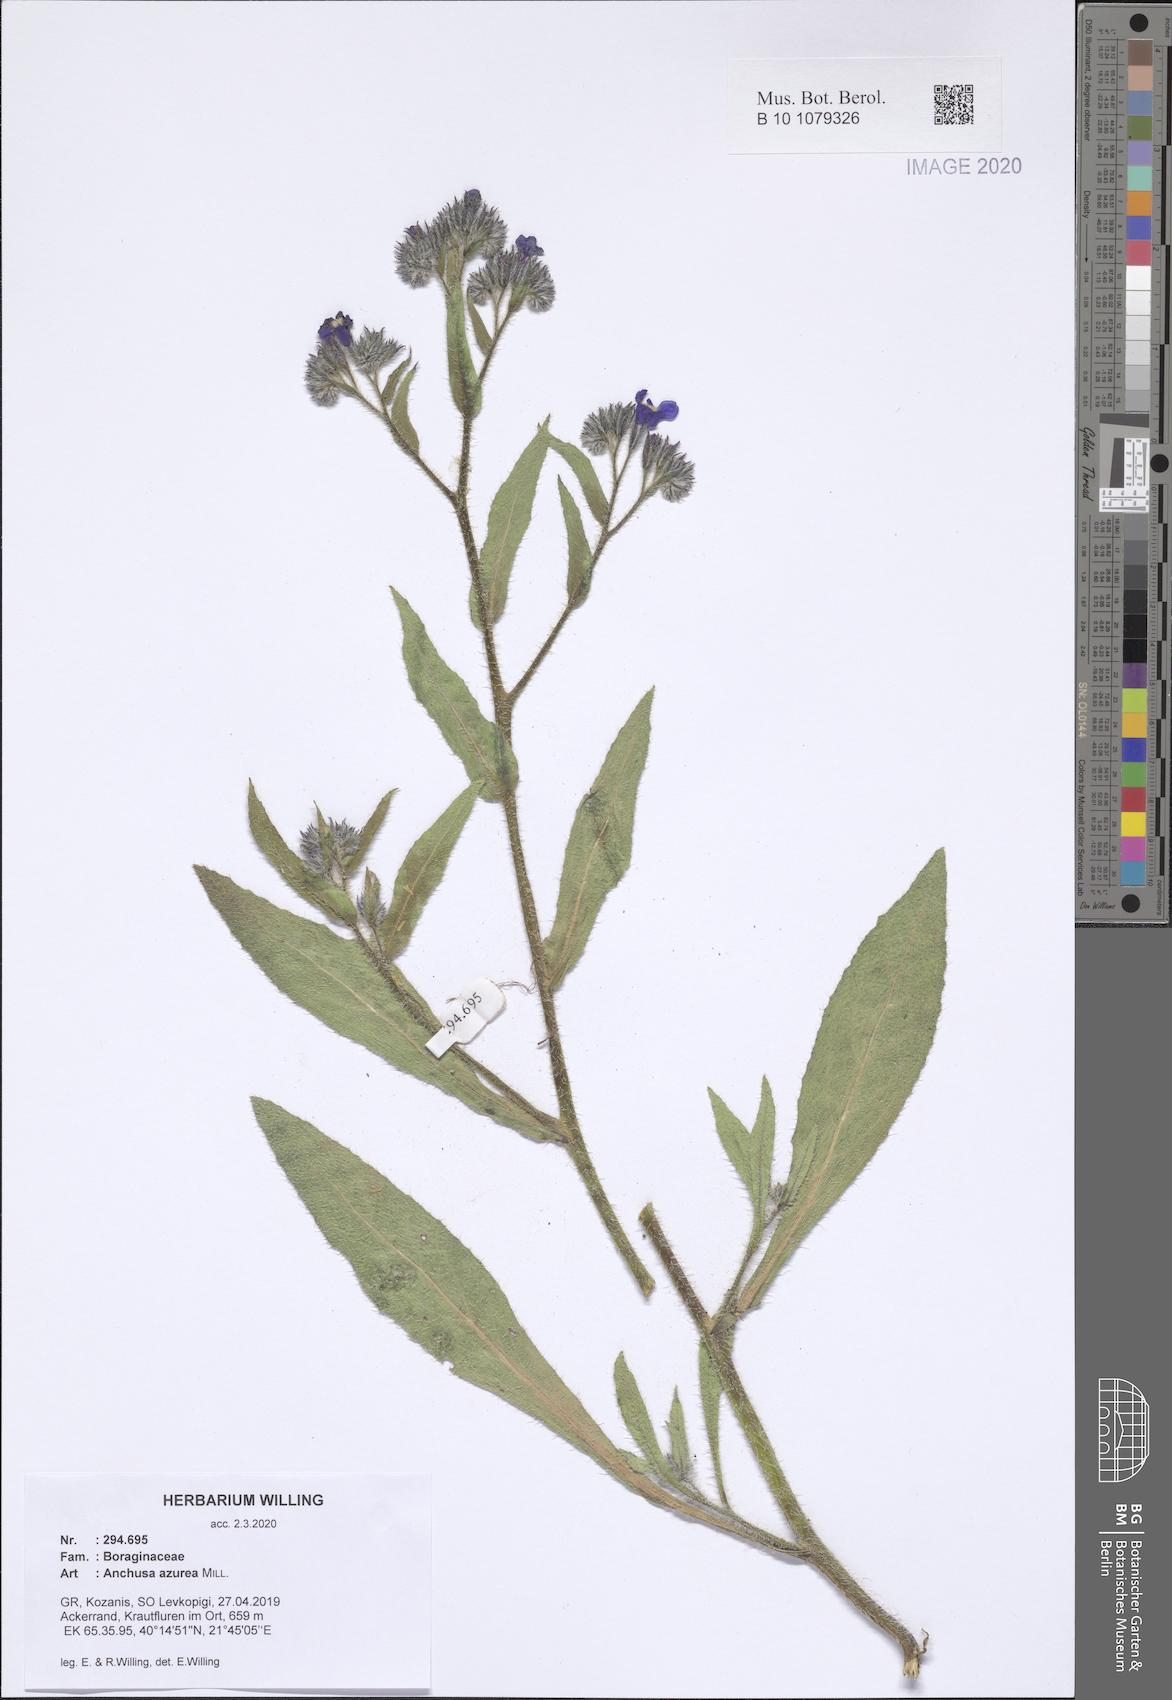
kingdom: Plantae
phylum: Tracheophyta
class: Magnoliopsida
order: Boraginales
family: Boraginaceae
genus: Anchusa
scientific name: Anchusa azurea
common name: Garden anchusa
